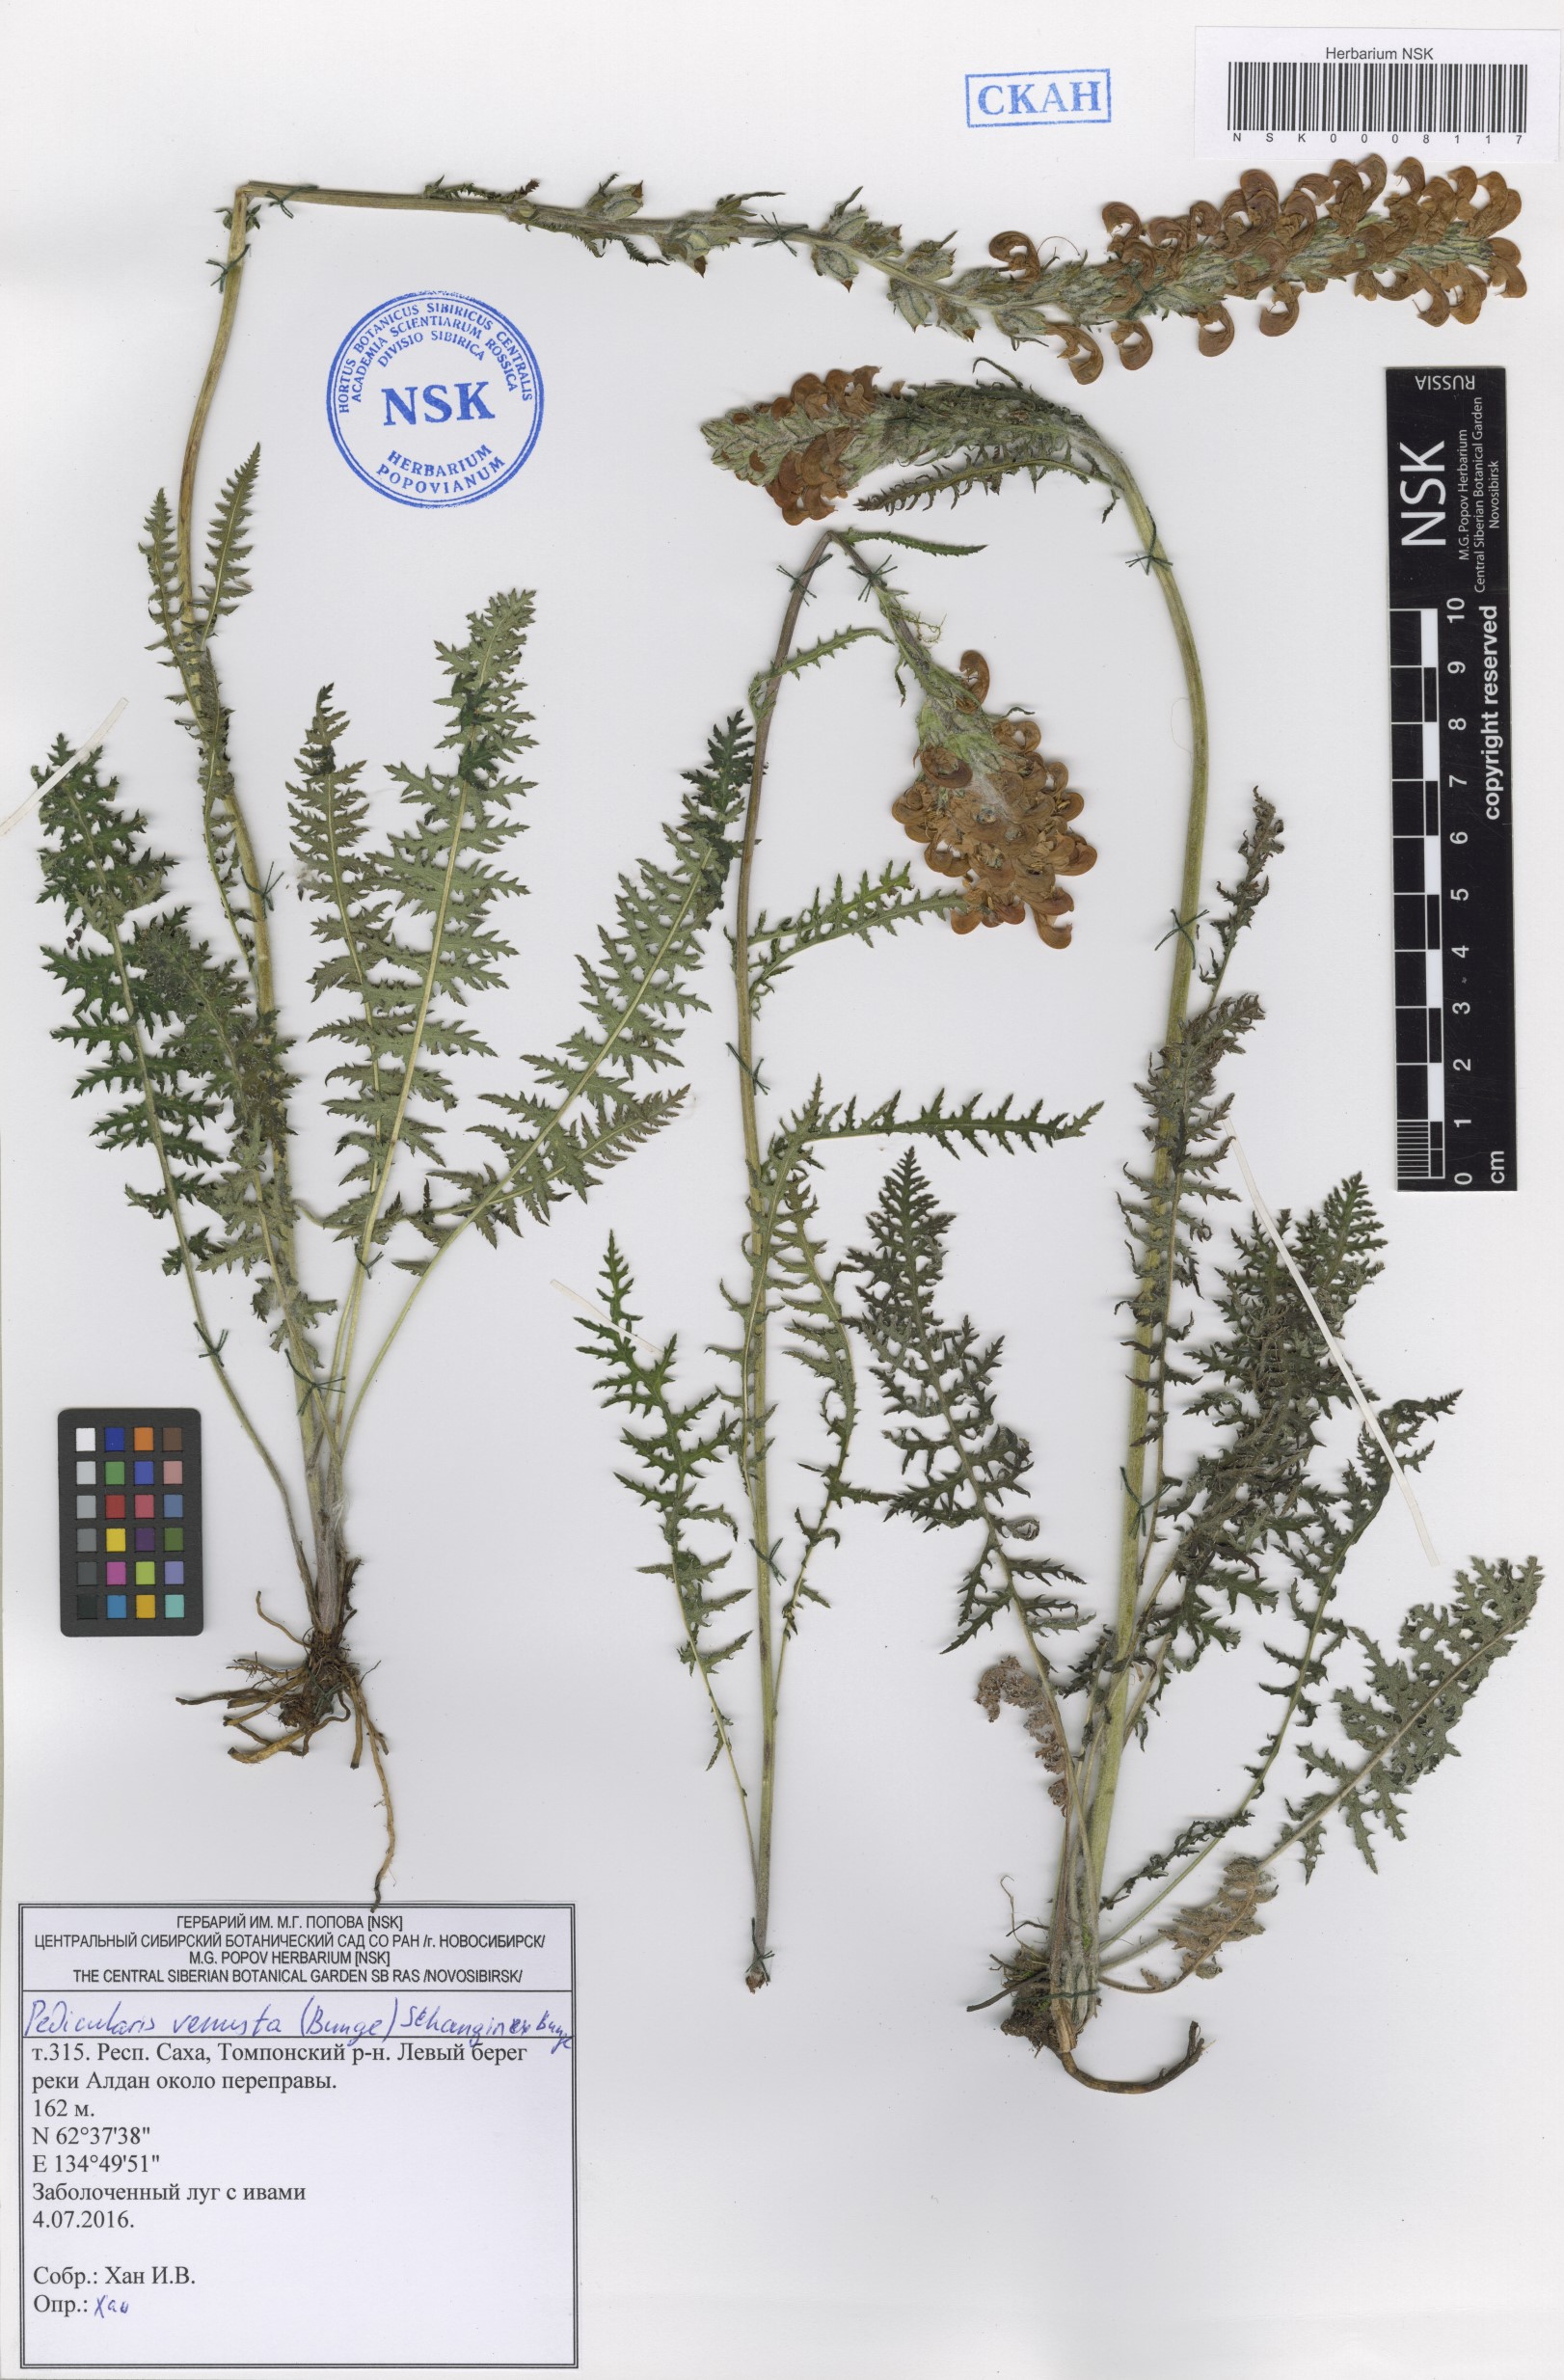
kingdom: Plantae
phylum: Tracheophyta
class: Magnoliopsida
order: Lamiales
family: Orobanchaceae
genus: Pedicularis
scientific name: Pedicularis venusta
